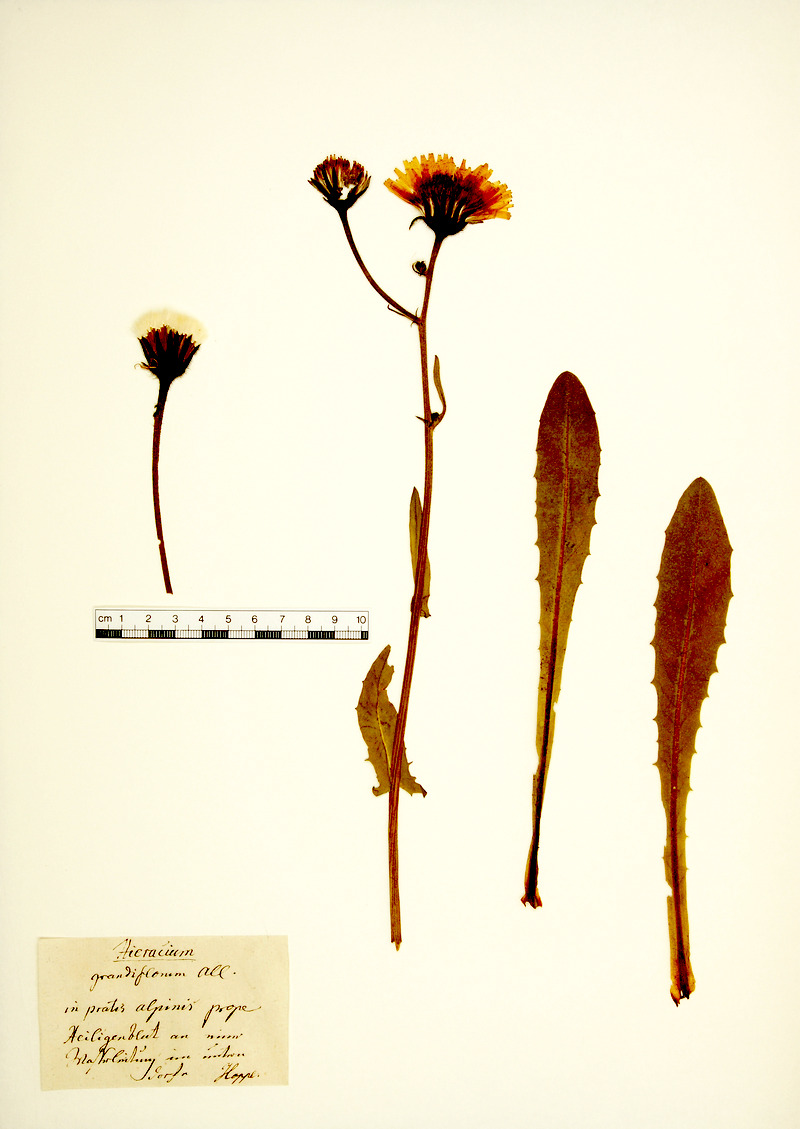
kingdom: Plantae
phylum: Tracheophyta
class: Magnoliopsida
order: Asterales
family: Asteraceae
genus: Crepis
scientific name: Crepis blattarioides
